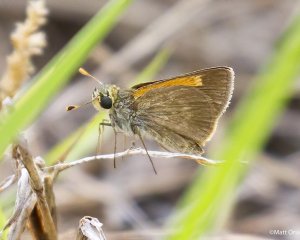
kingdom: Animalia
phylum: Arthropoda
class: Insecta
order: Lepidoptera
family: Hesperiidae
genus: Polites
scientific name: Polites baracoa
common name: Baracoa Skipper
